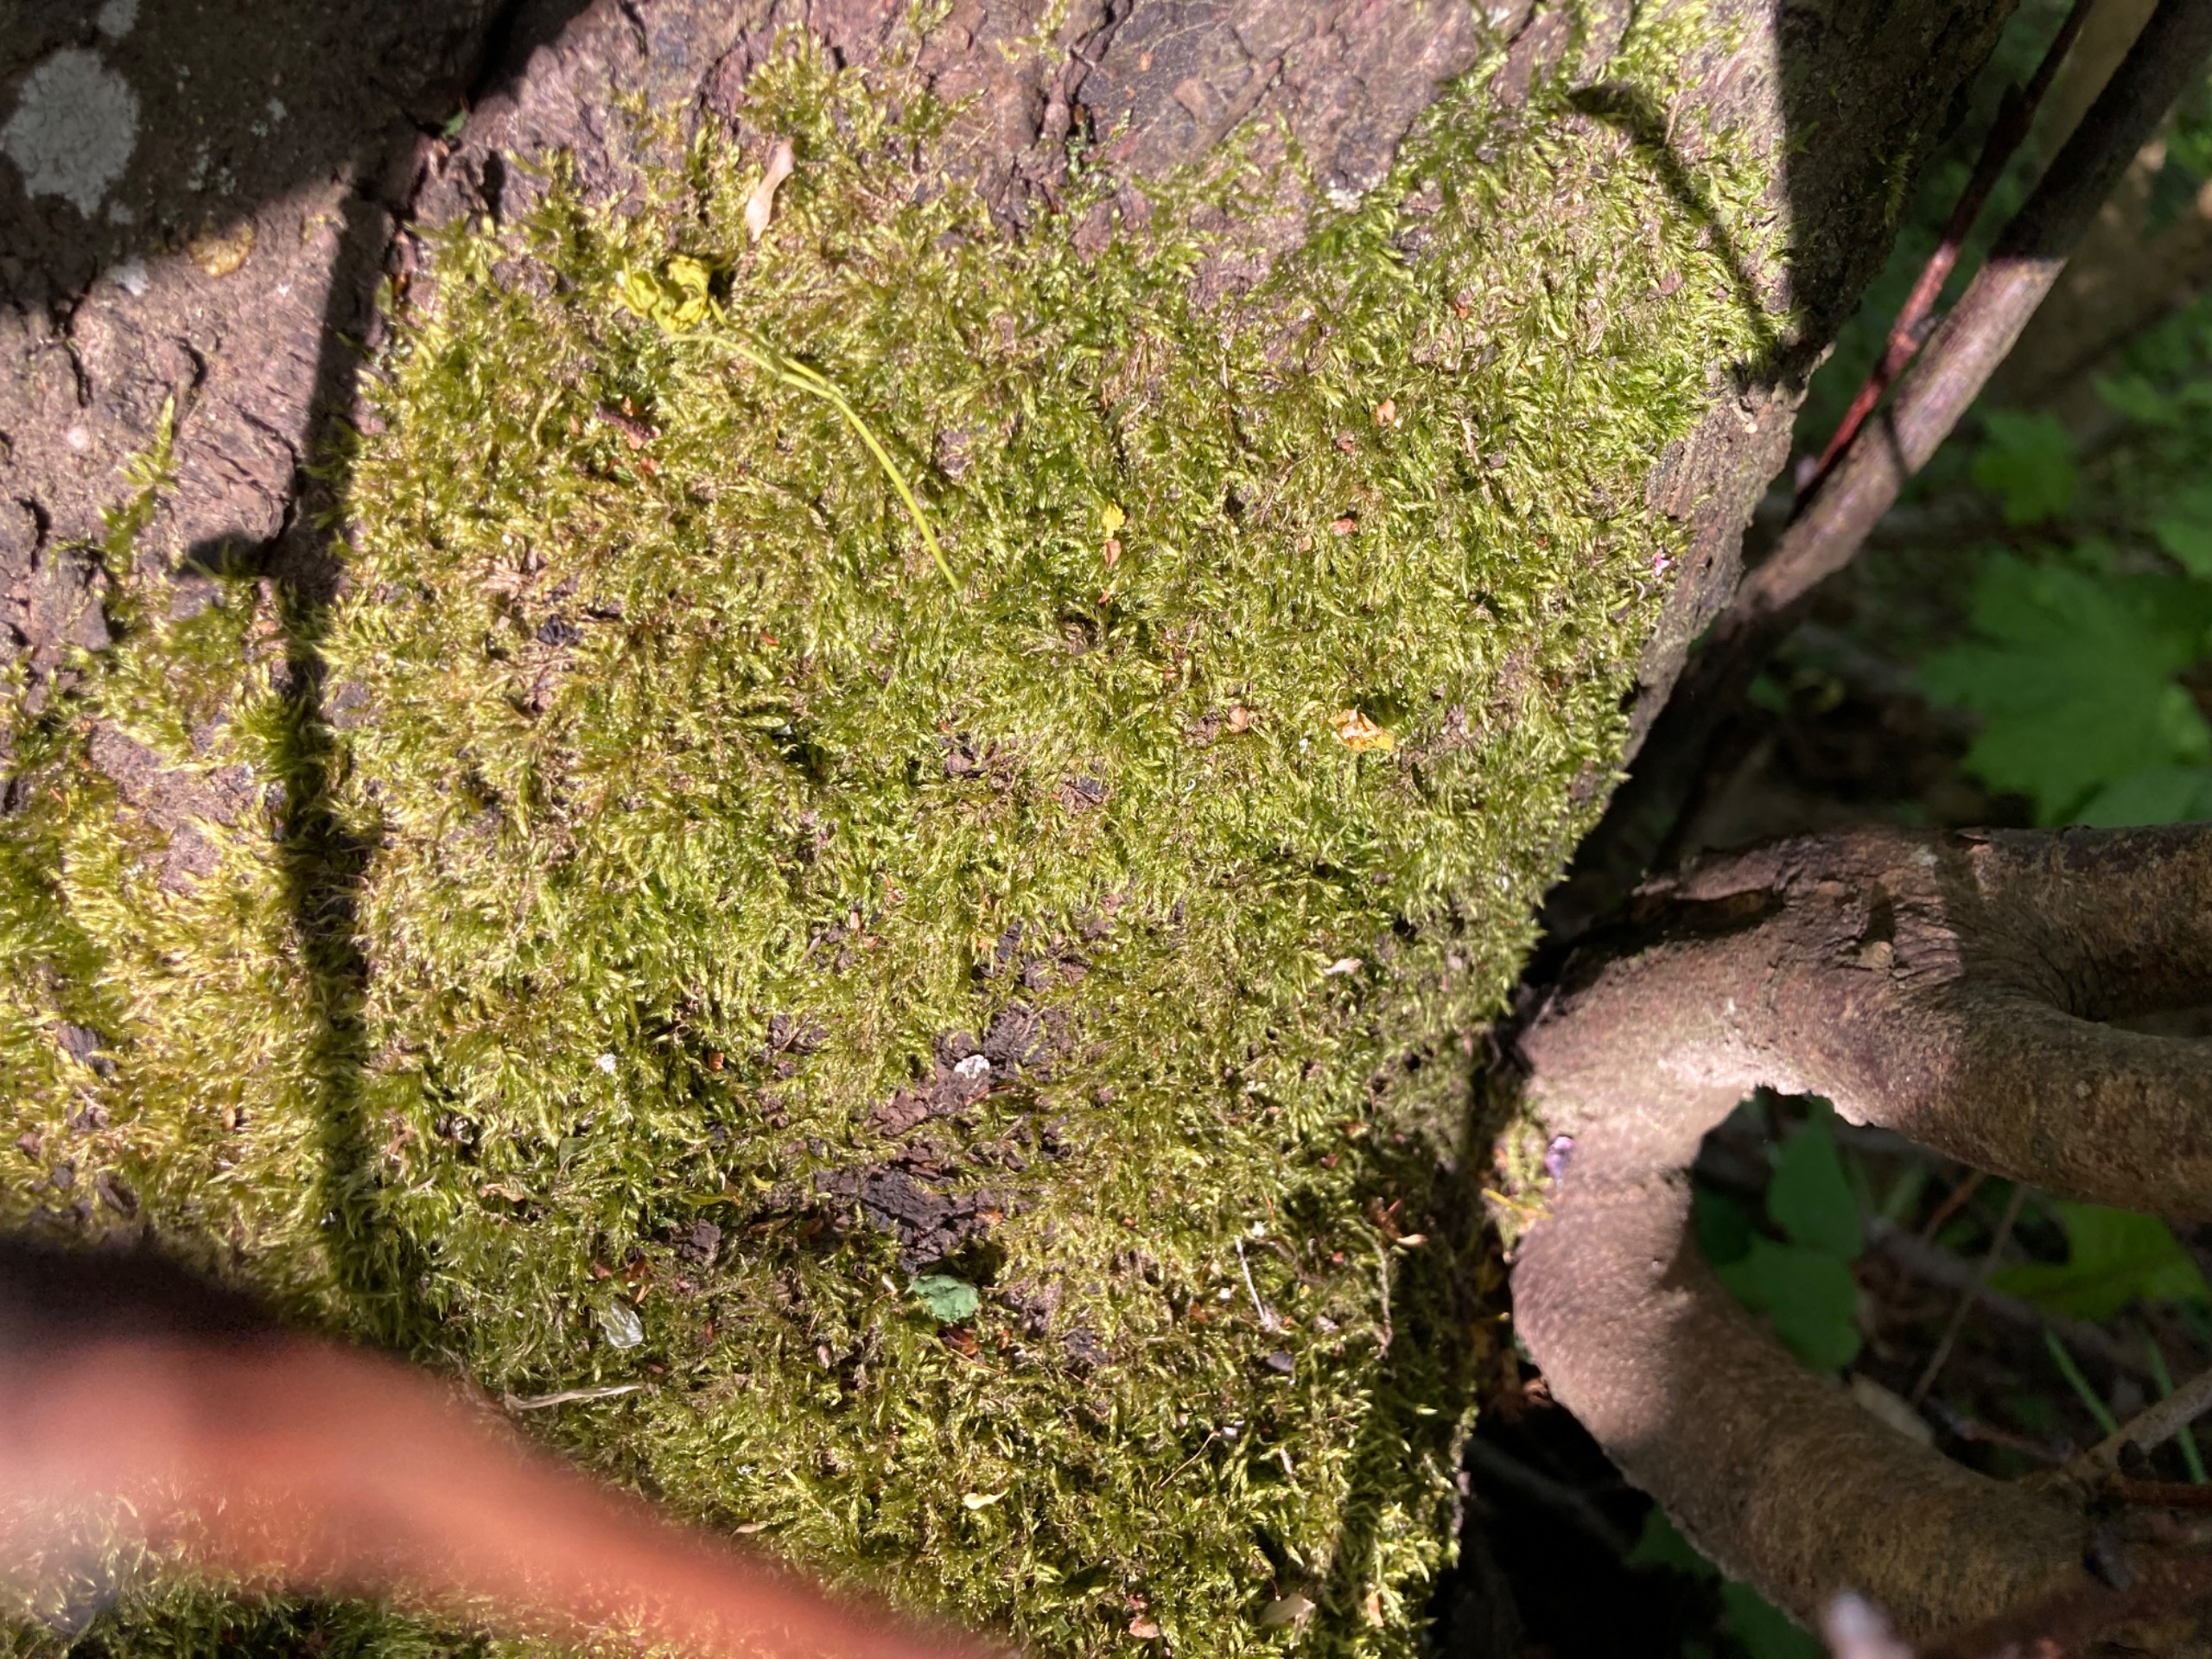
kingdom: Plantae
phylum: Bryophyta
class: Bryopsida
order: Hypnales
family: Hypnaceae
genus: Hypnum
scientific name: Hypnum
